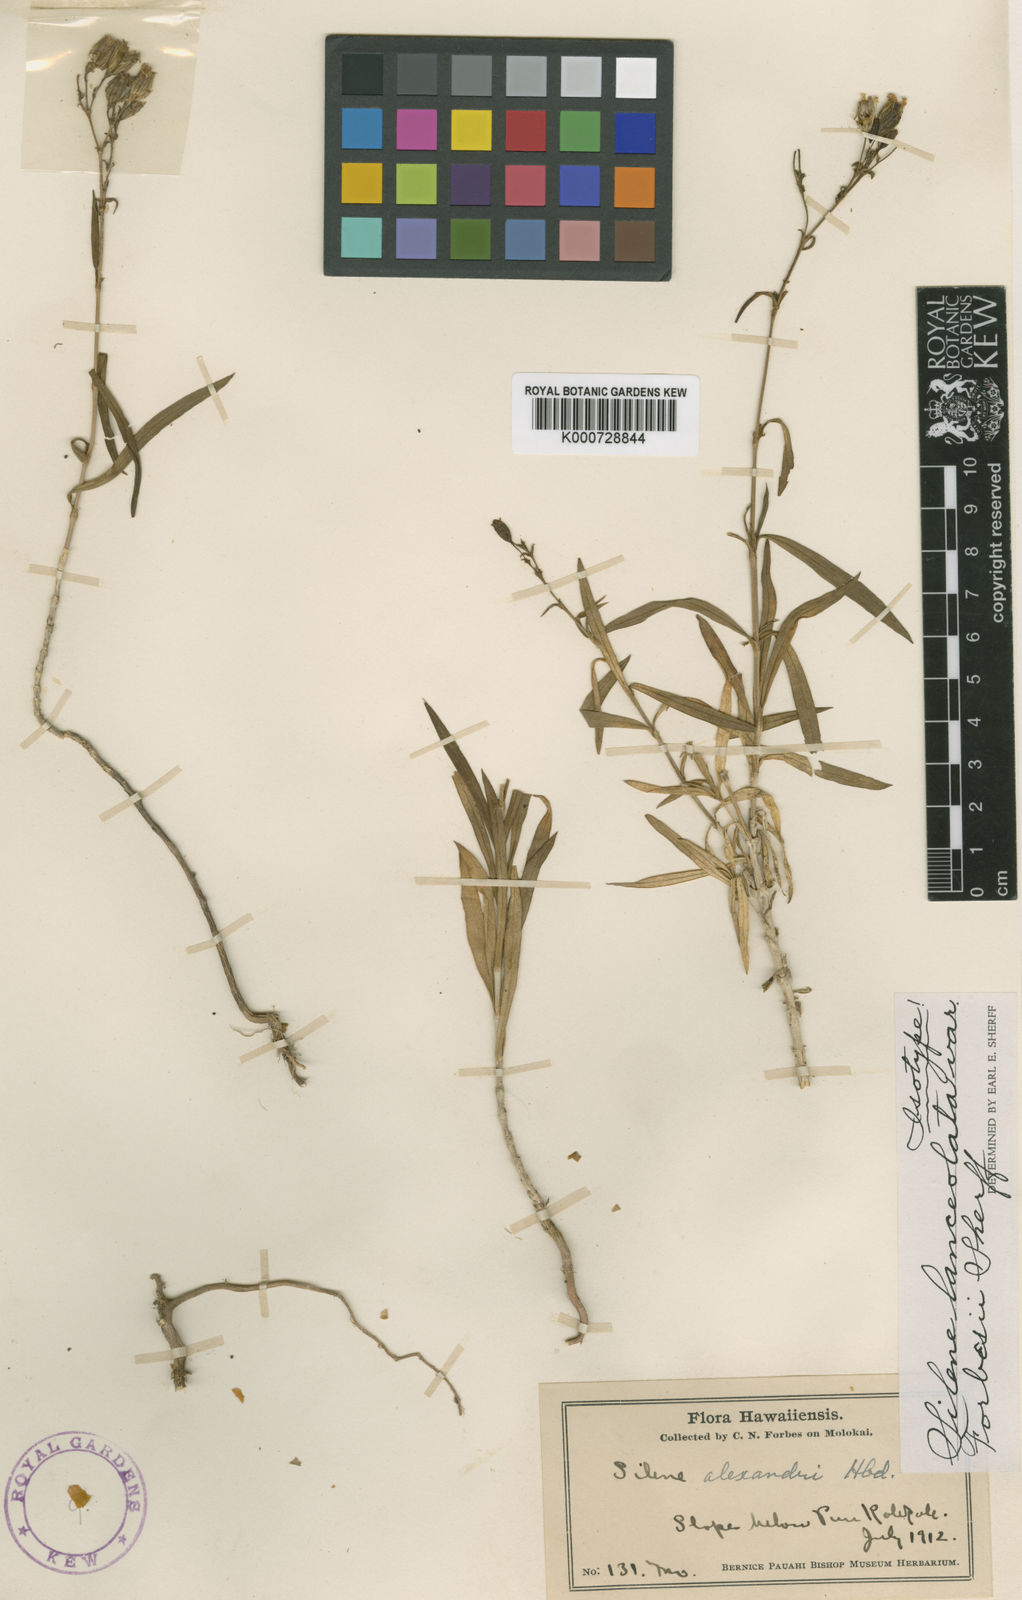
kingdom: Plantae
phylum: Tracheophyta
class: Magnoliopsida
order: Caryophyllales
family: Caryophyllaceae
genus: Silene
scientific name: Silene lanceolata
